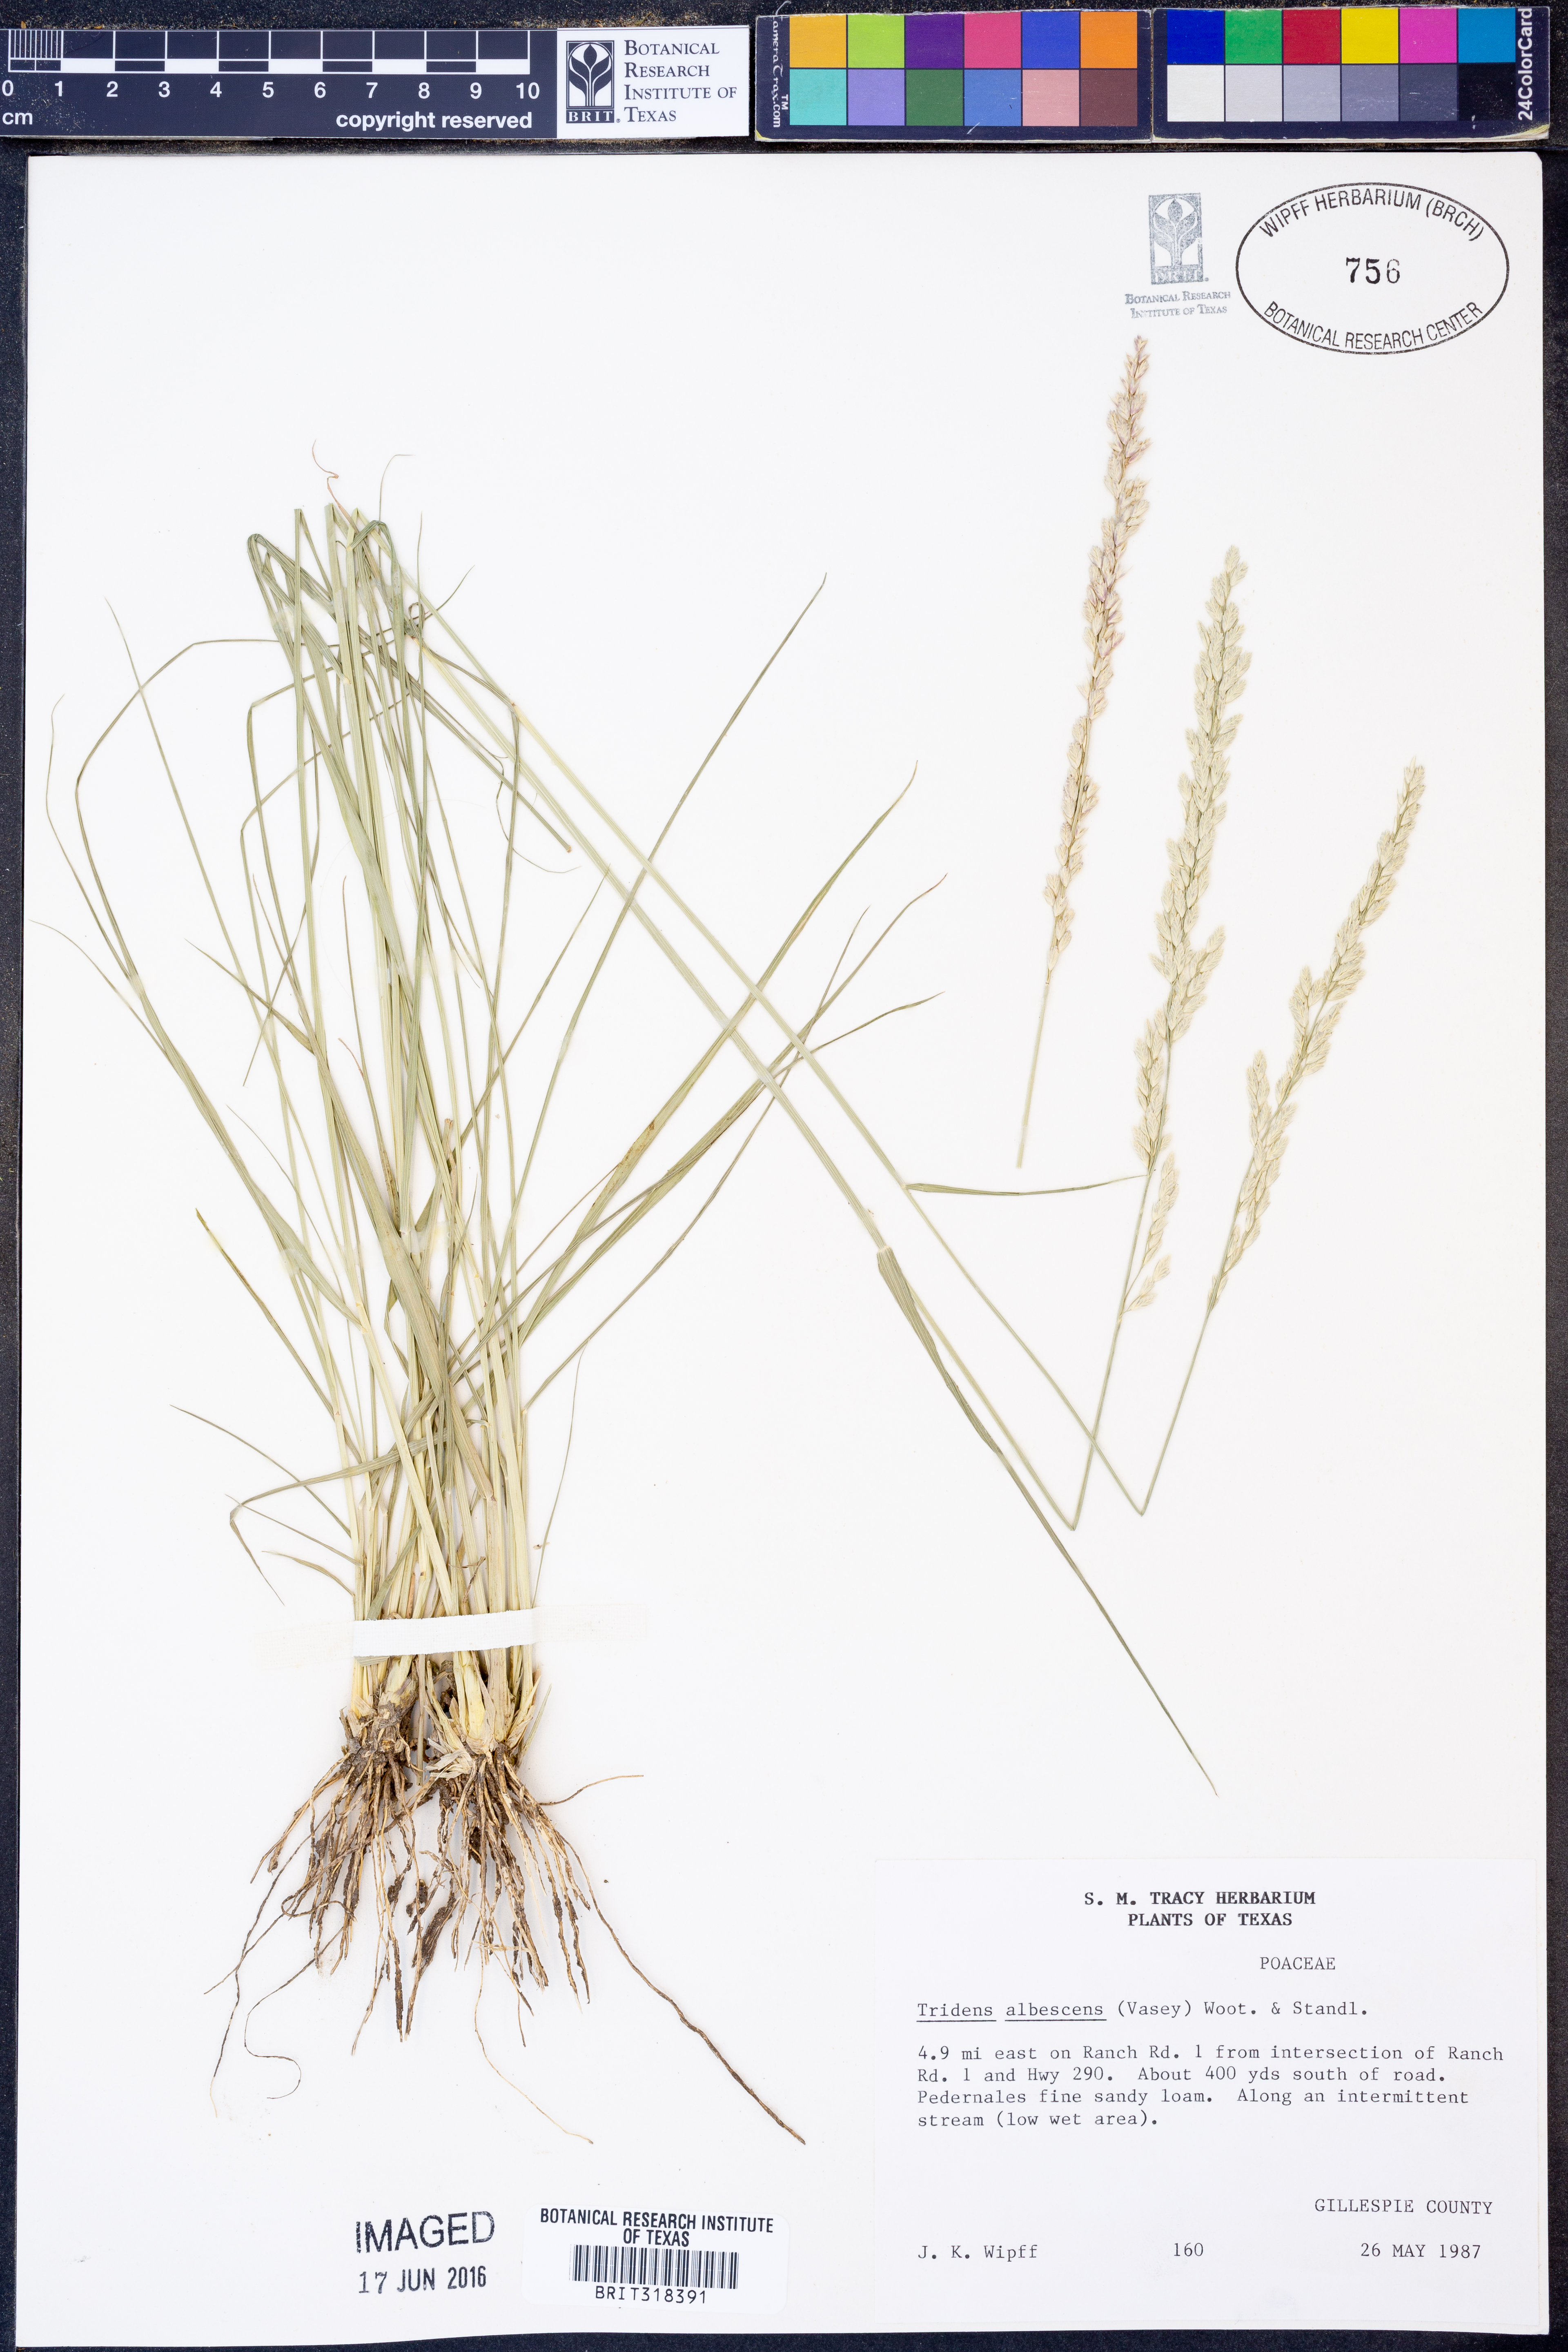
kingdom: Plantae
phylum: Tracheophyta
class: Liliopsida
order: Poales
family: Poaceae
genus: Tridens
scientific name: Tridens albescens
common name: White tridens
